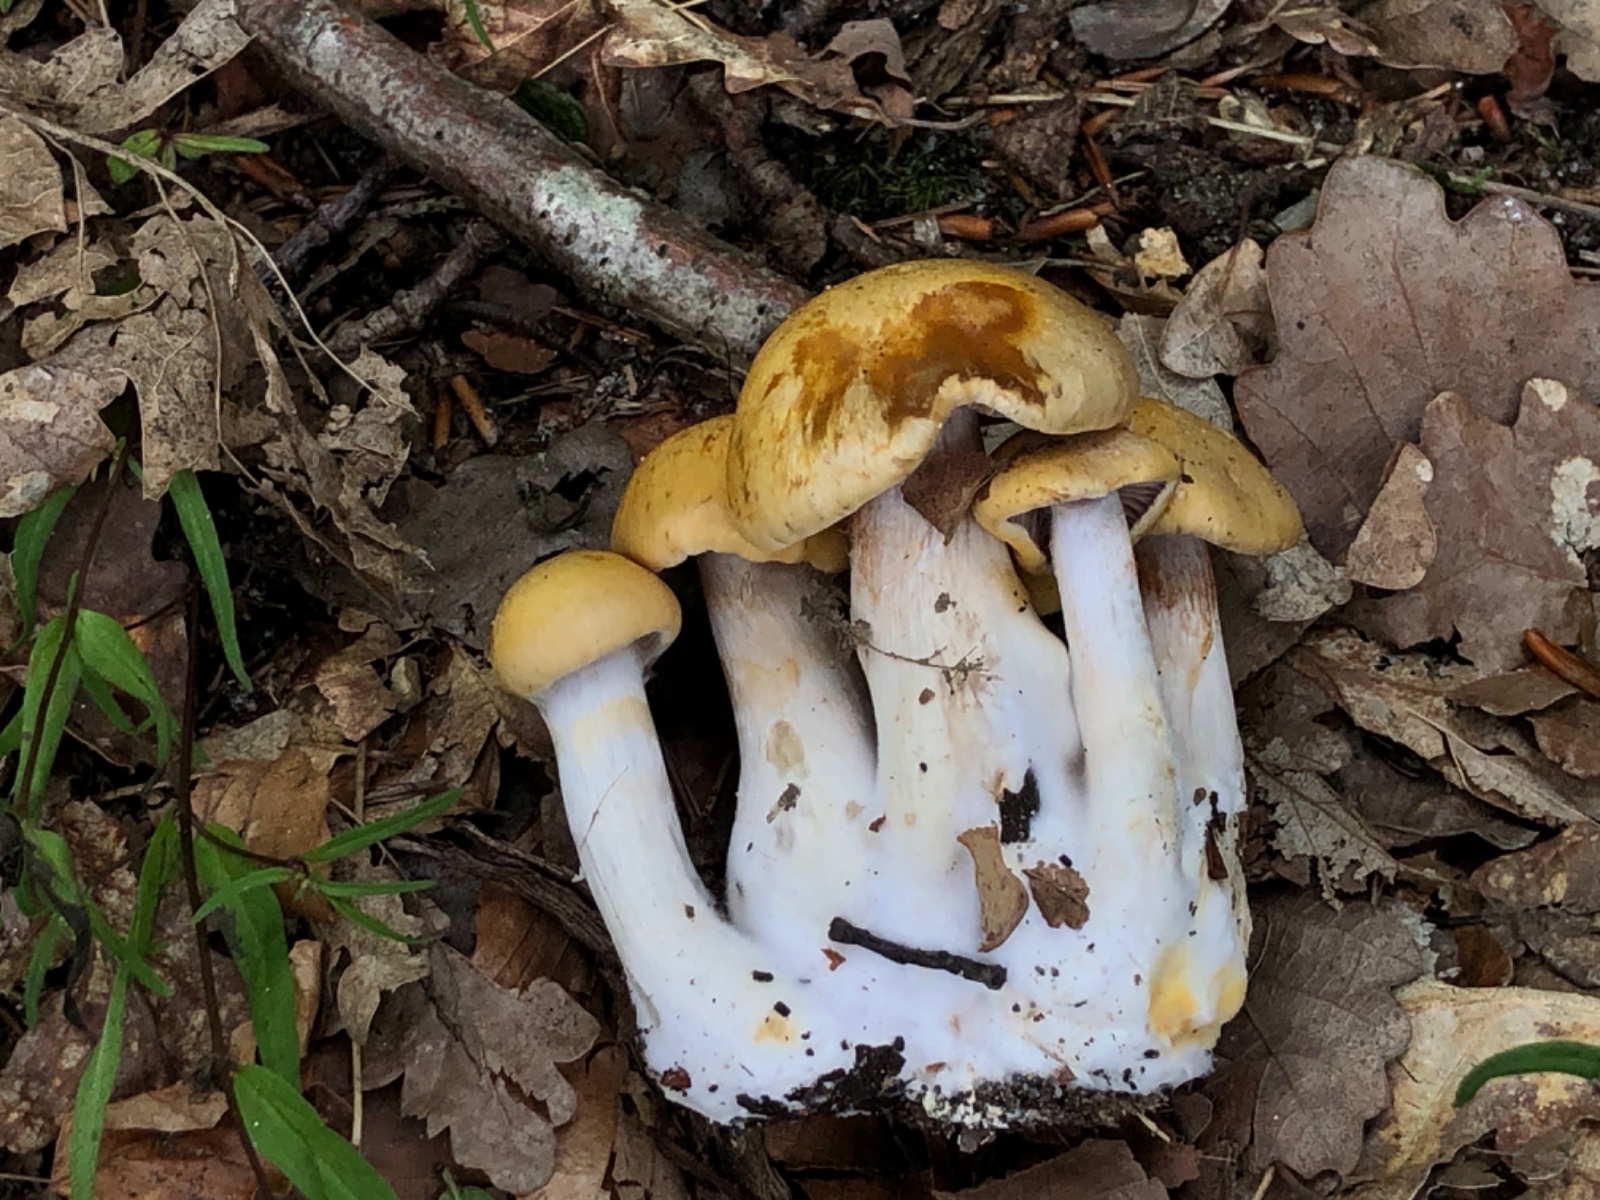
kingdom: Fungi
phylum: Basidiomycota
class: Agaricomycetes
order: Agaricales
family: Cortinariaceae
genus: Cortinarius
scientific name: Cortinarius illibatus
